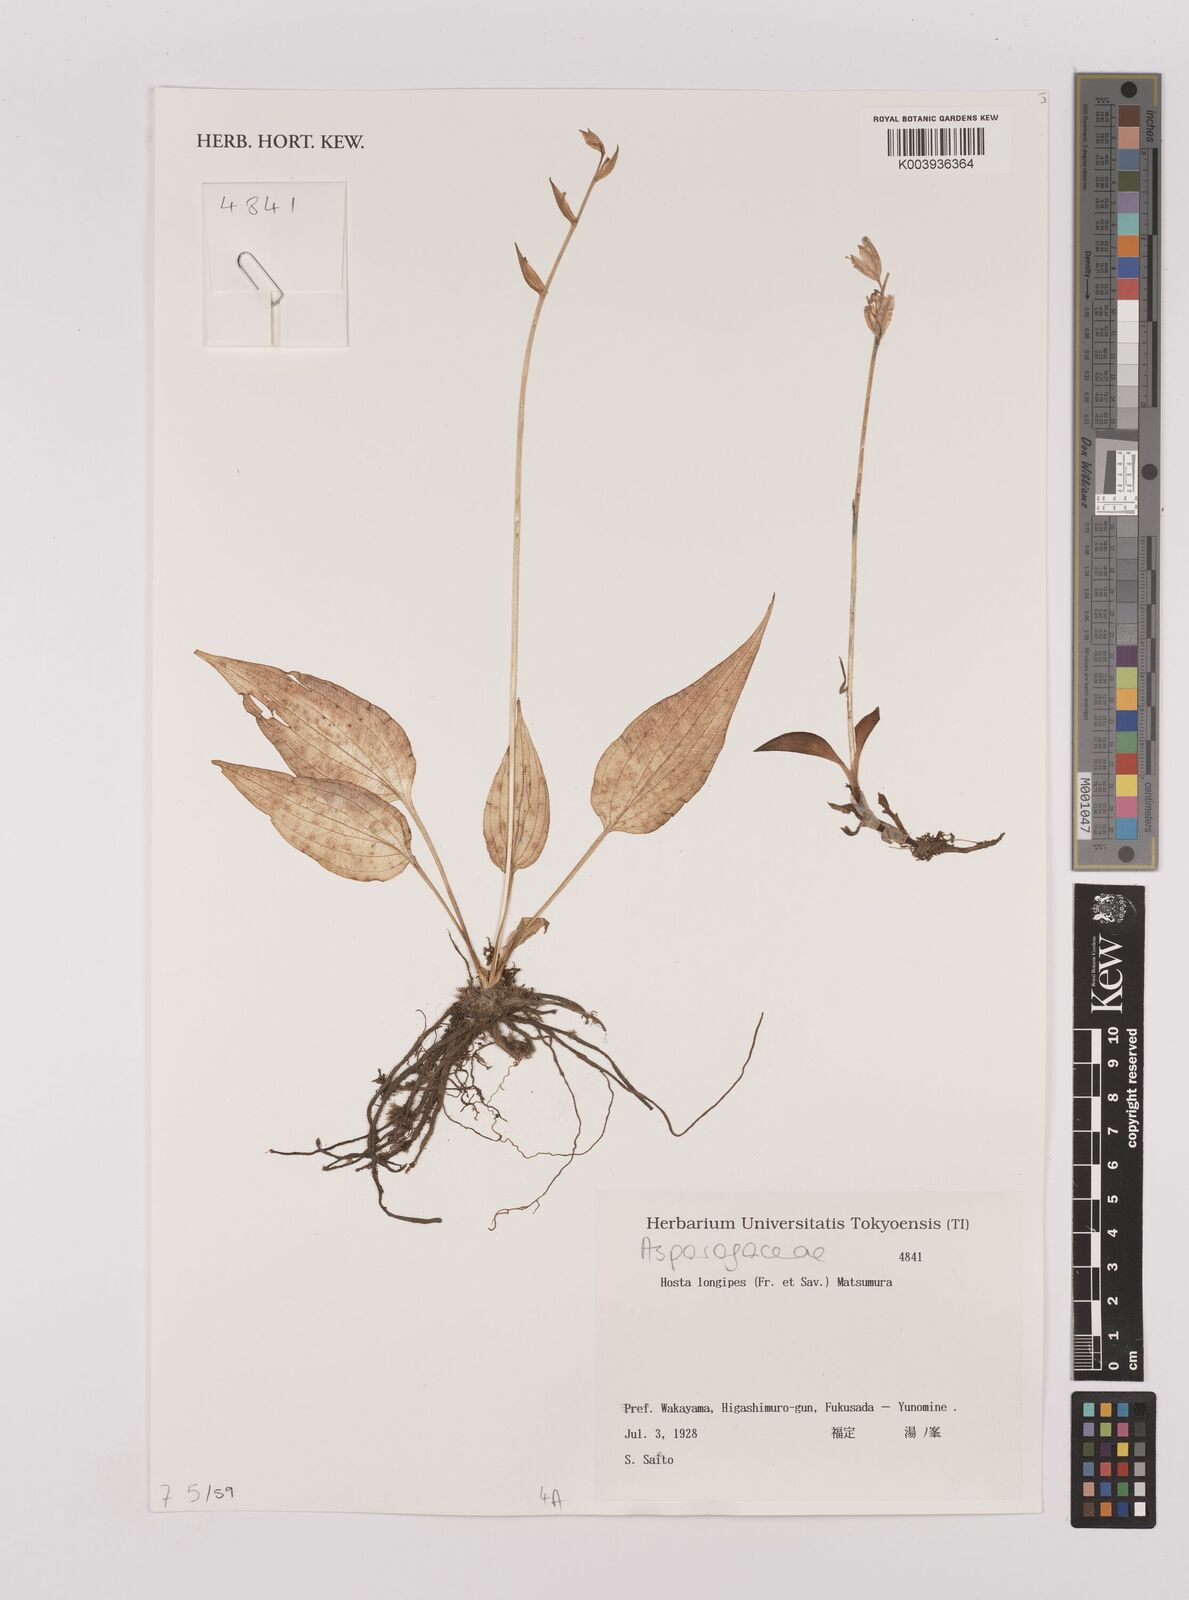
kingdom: Plantae
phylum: Tracheophyta
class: Liliopsida
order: Asparagales
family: Asparagaceae
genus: Hosta
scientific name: Hosta
